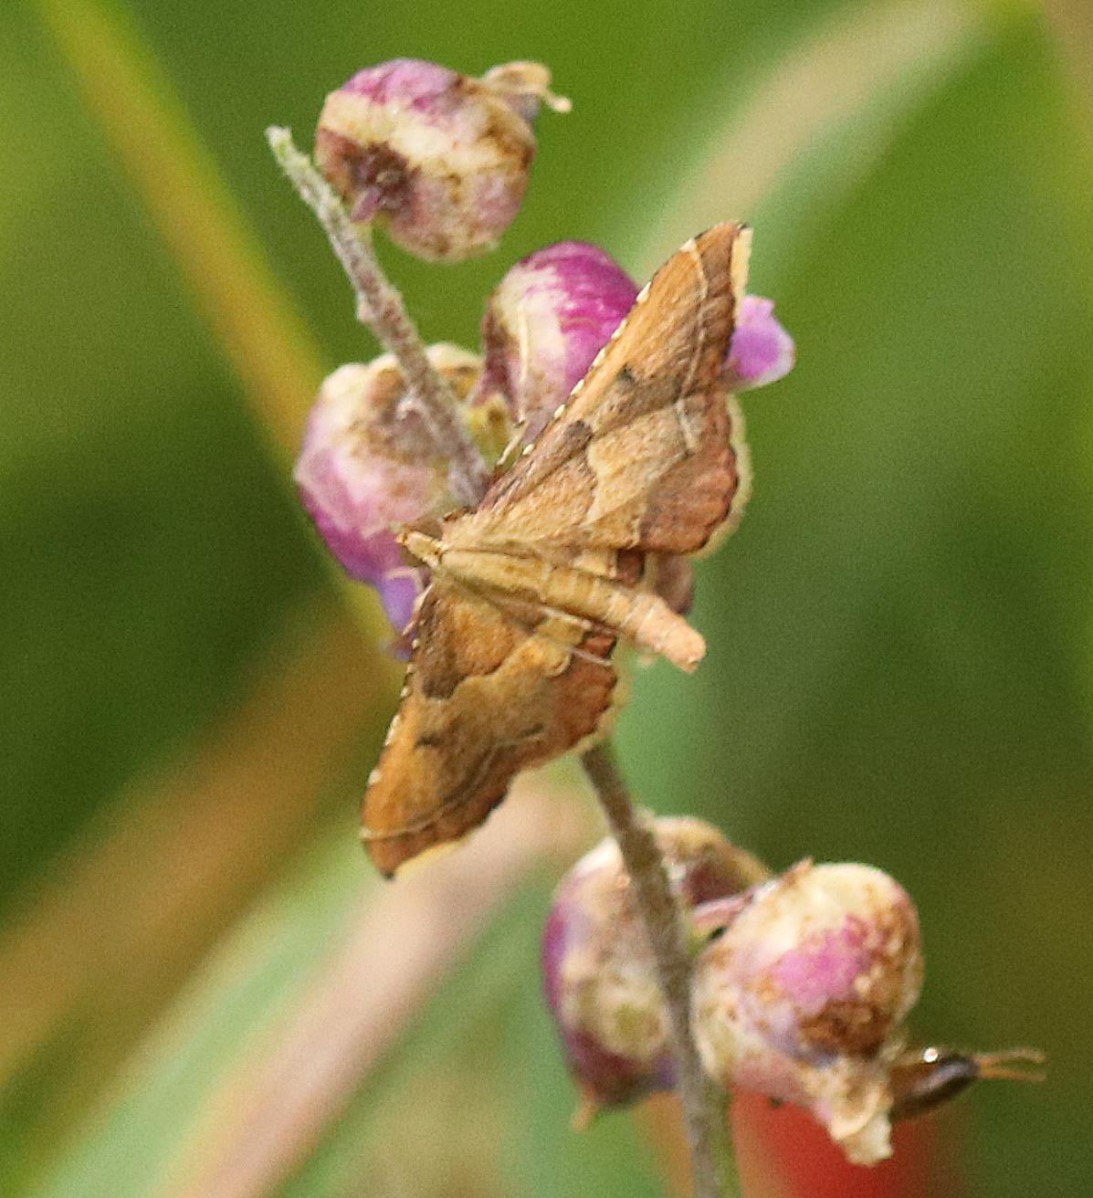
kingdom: Animalia
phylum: Arthropoda
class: Insecta
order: Lepidoptera
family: Pyralidae
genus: Endotricha
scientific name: Endotricha flammealis
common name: Løvkrathalvmøl
